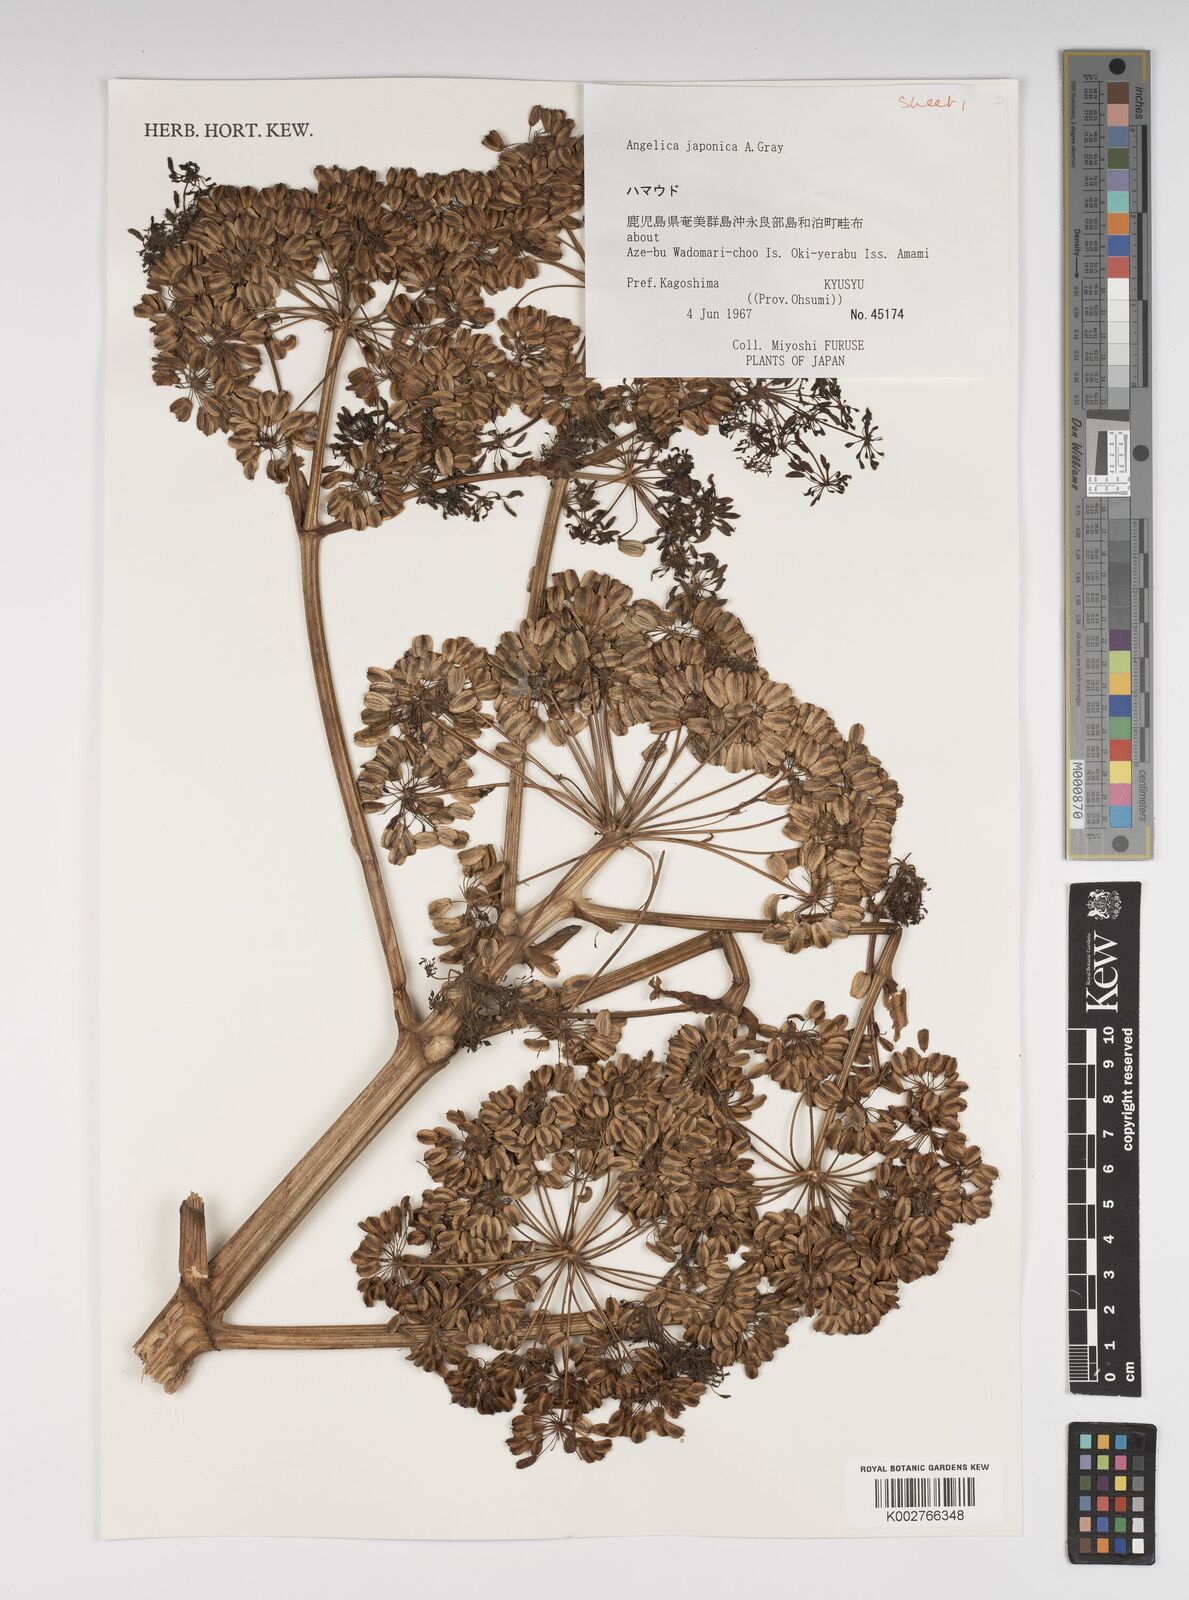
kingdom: Plantae
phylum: Tracheophyta
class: Magnoliopsida
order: Apiales
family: Apiaceae
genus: Angelica
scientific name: Angelica japonica
